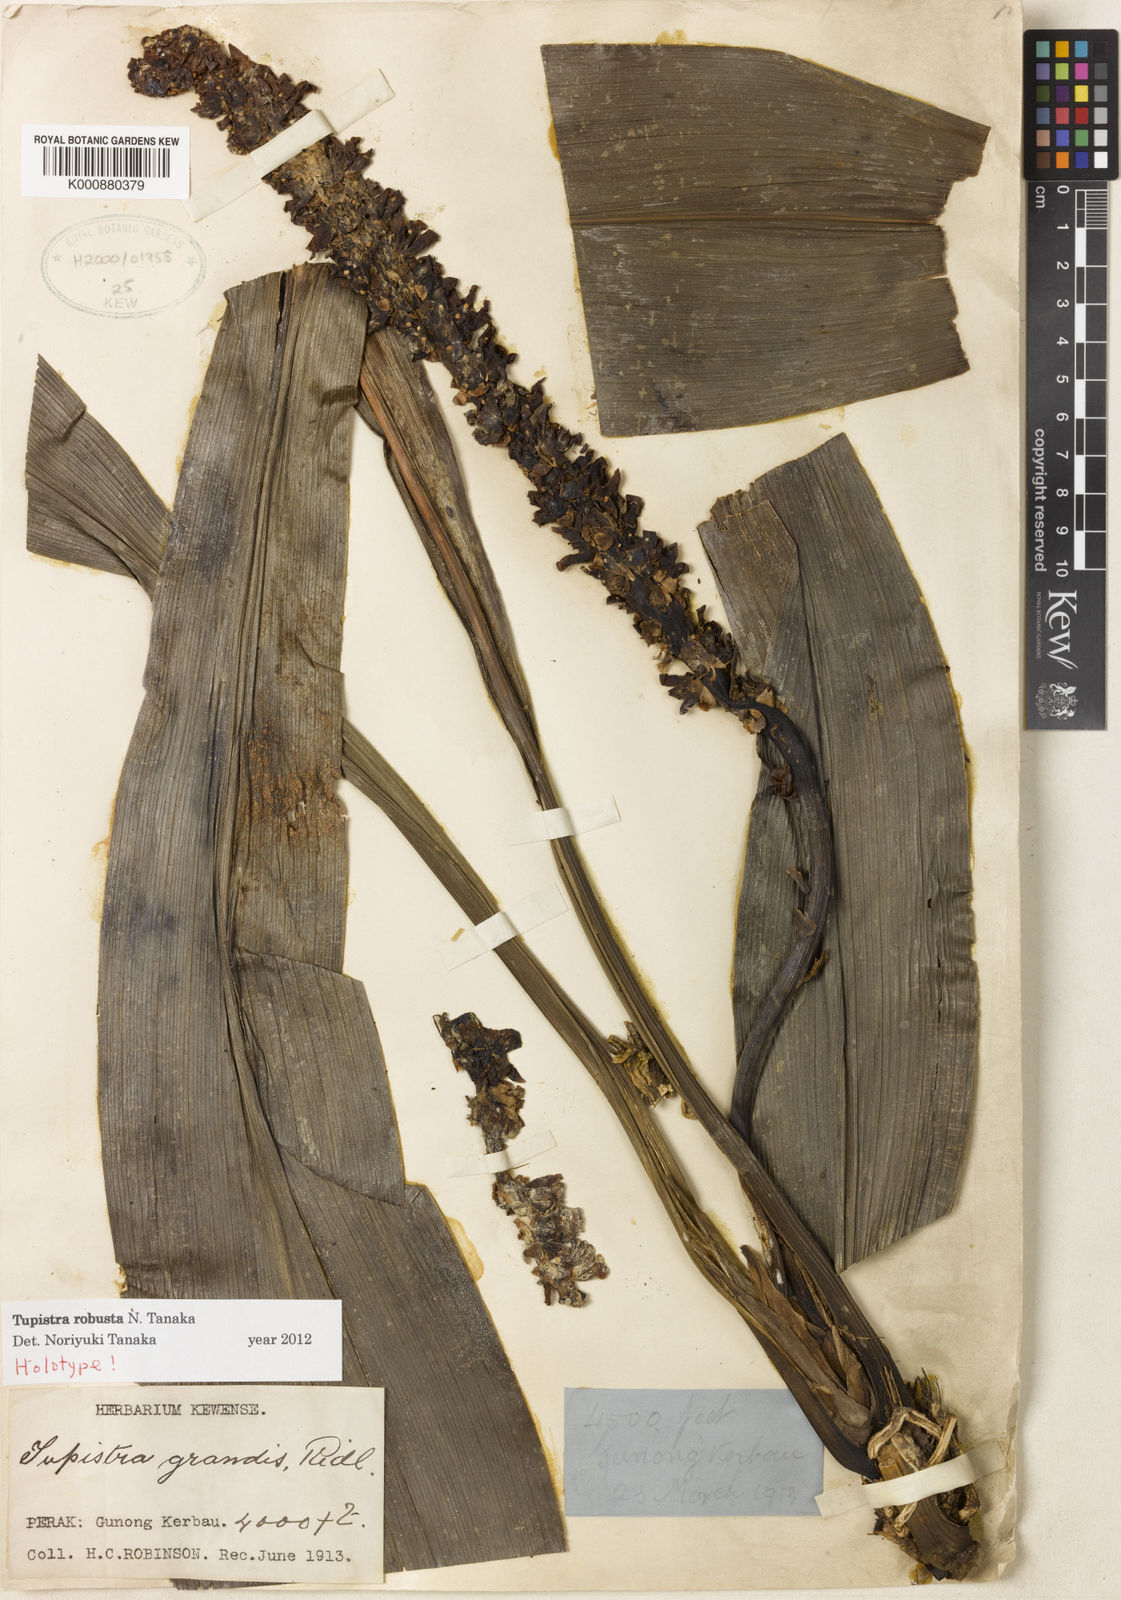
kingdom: Plantae
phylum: Tracheophyta
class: Liliopsida
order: Asparagales
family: Asparagaceae
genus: Tupistra
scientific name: Tupistra robusta
